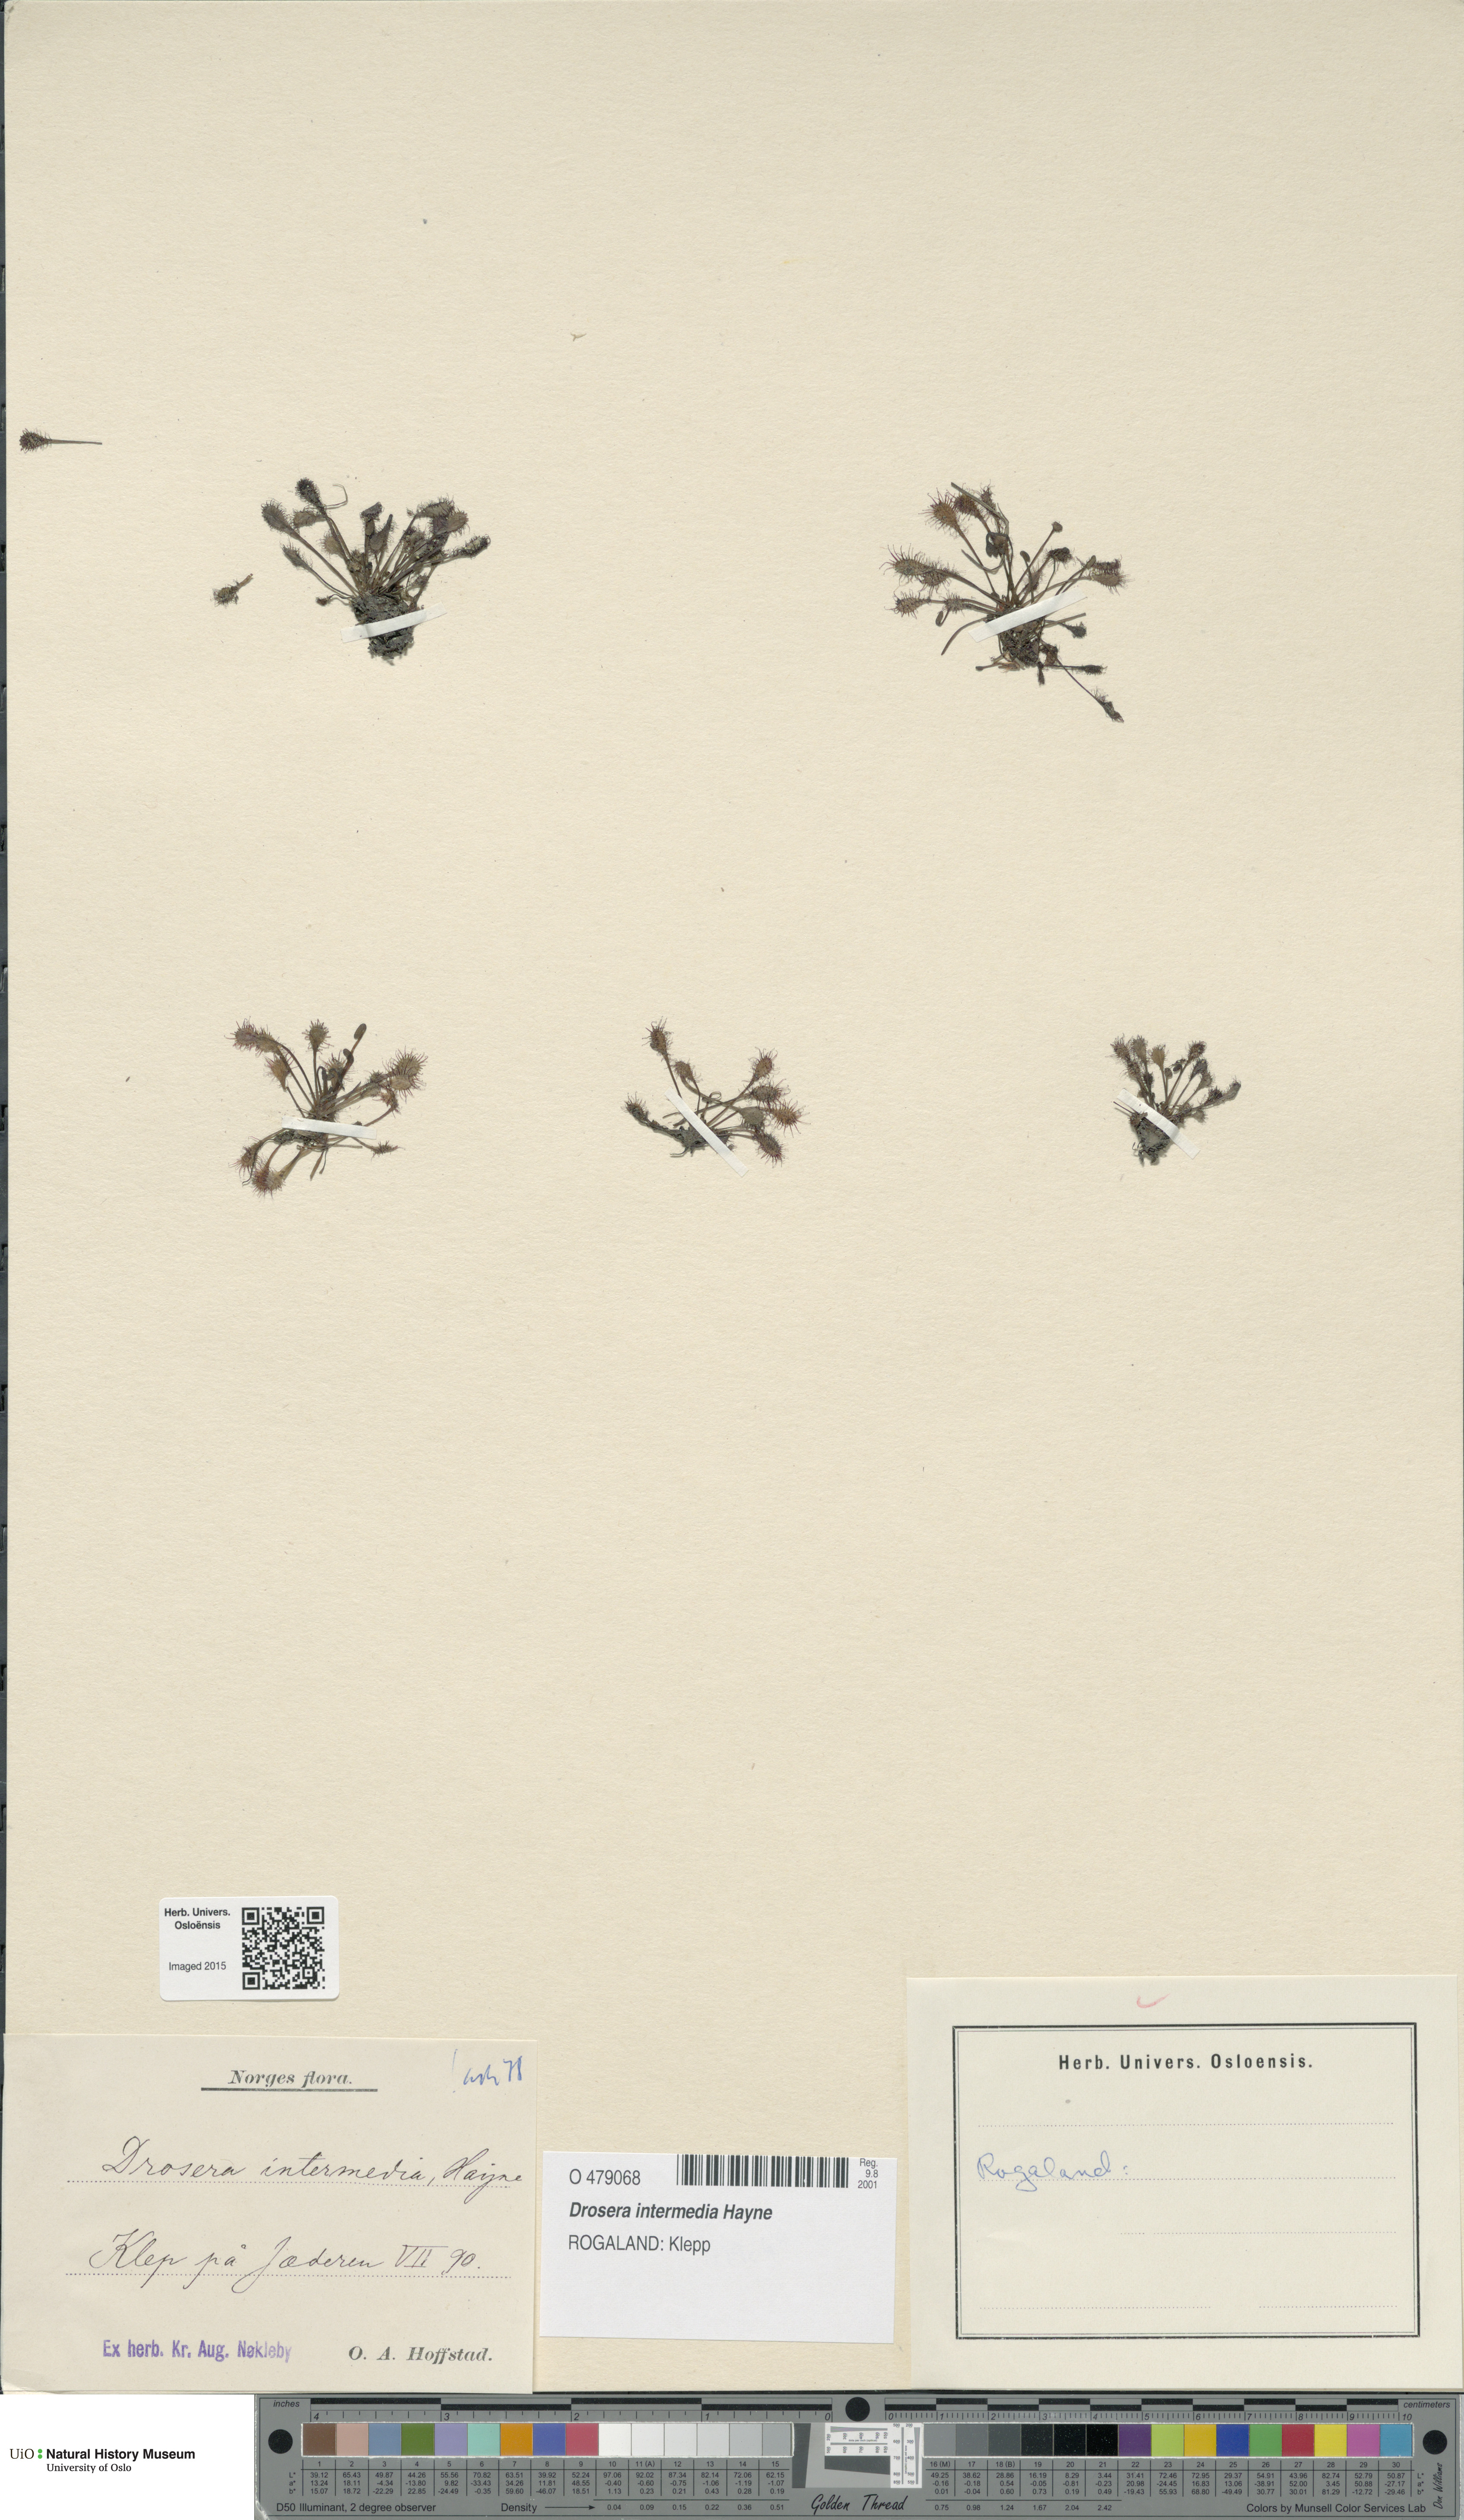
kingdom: Plantae
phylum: Tracheophyta
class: Magnoliopsida
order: Caryophyllales
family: Droseraceae
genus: Drosera
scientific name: Drosera intermedia
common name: Oblong-leaved sundew
